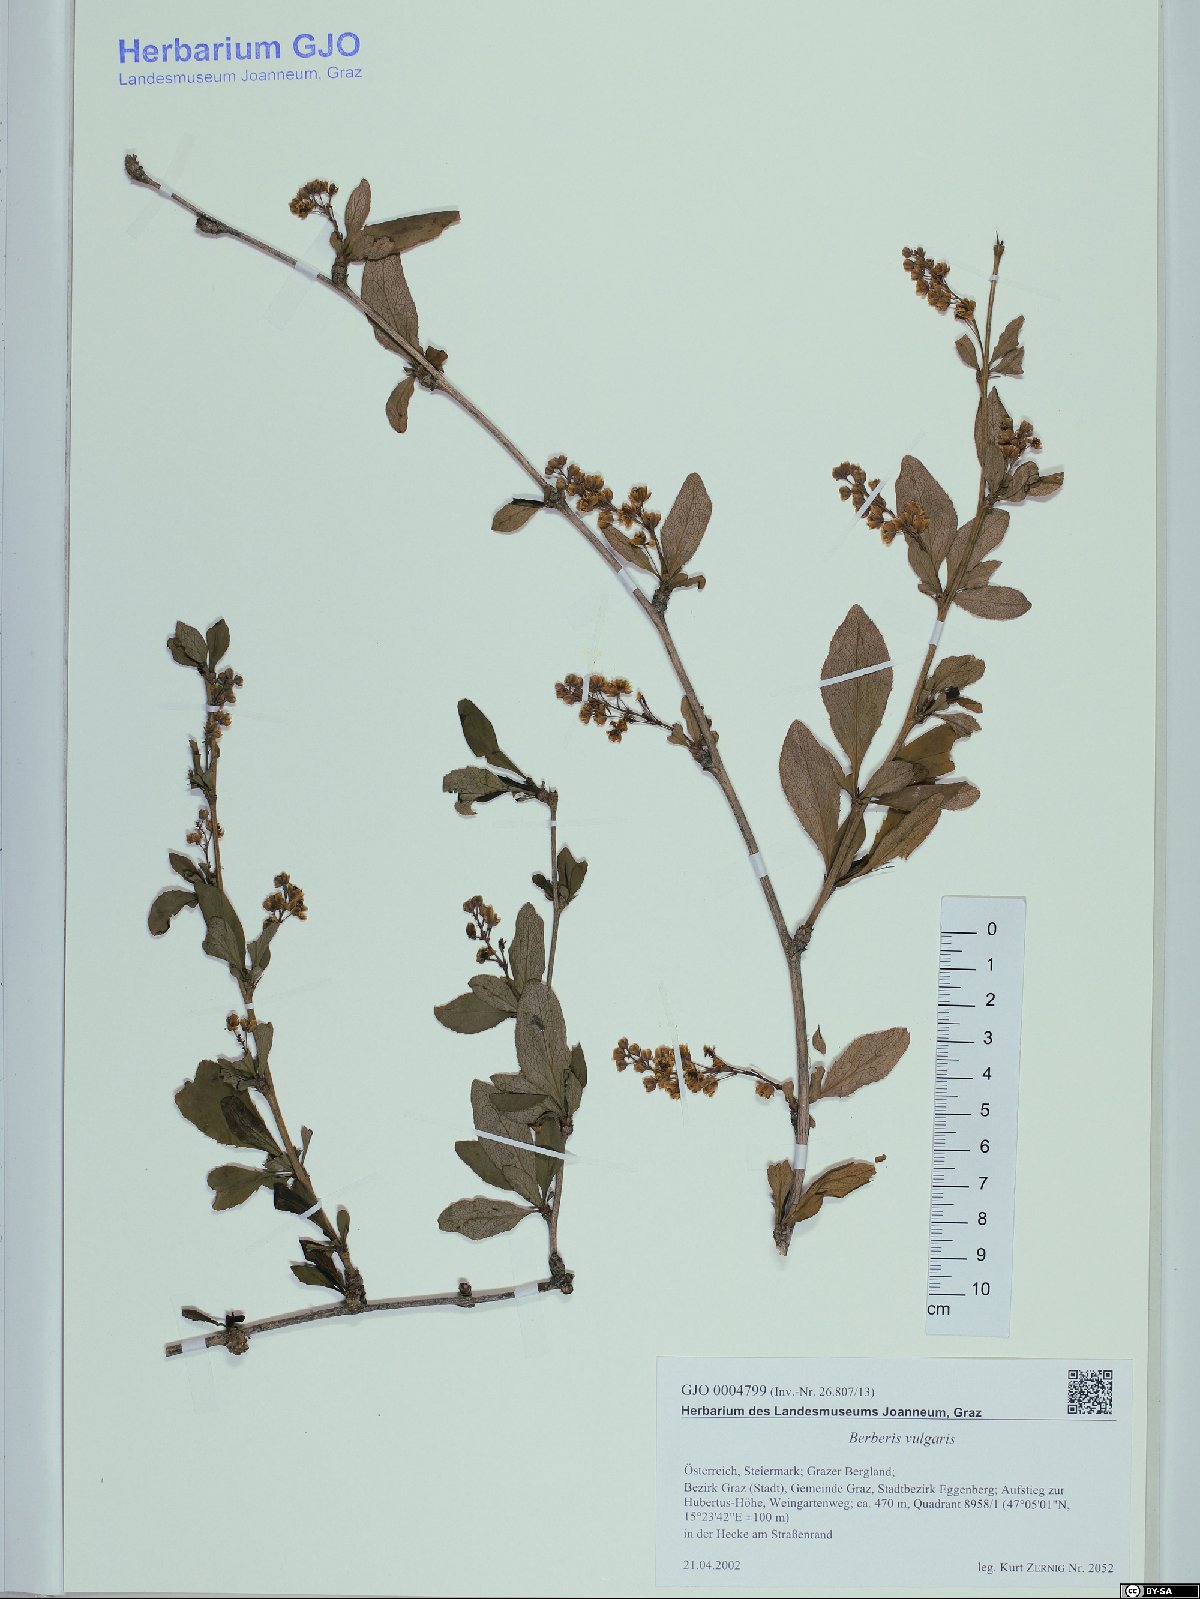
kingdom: Plantae
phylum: Tracheophyta
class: Magnoliopsida
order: Ranunculales
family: Berberidaceae
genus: Berberis
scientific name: Berberis vulgaris
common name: Barberry
